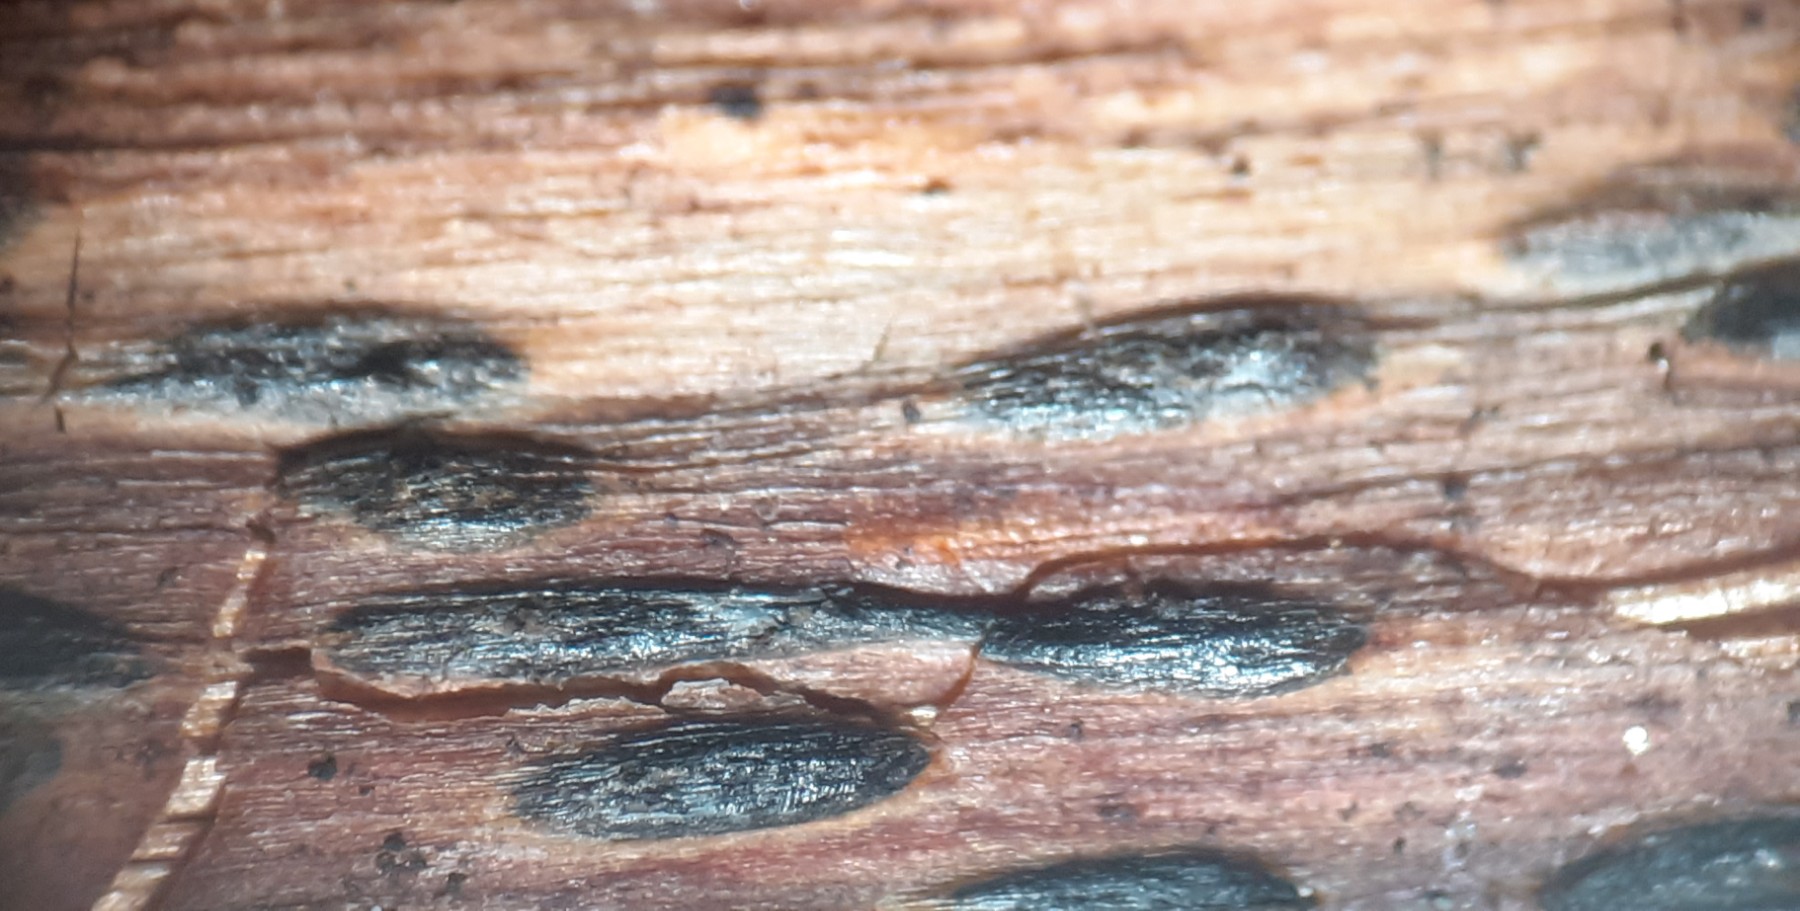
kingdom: Fungi
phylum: Ascomycota
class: Leotiomycetes
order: Rhytismatales
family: Rhytismataceae
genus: Lophodermium
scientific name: Lophodermium paeoniae
